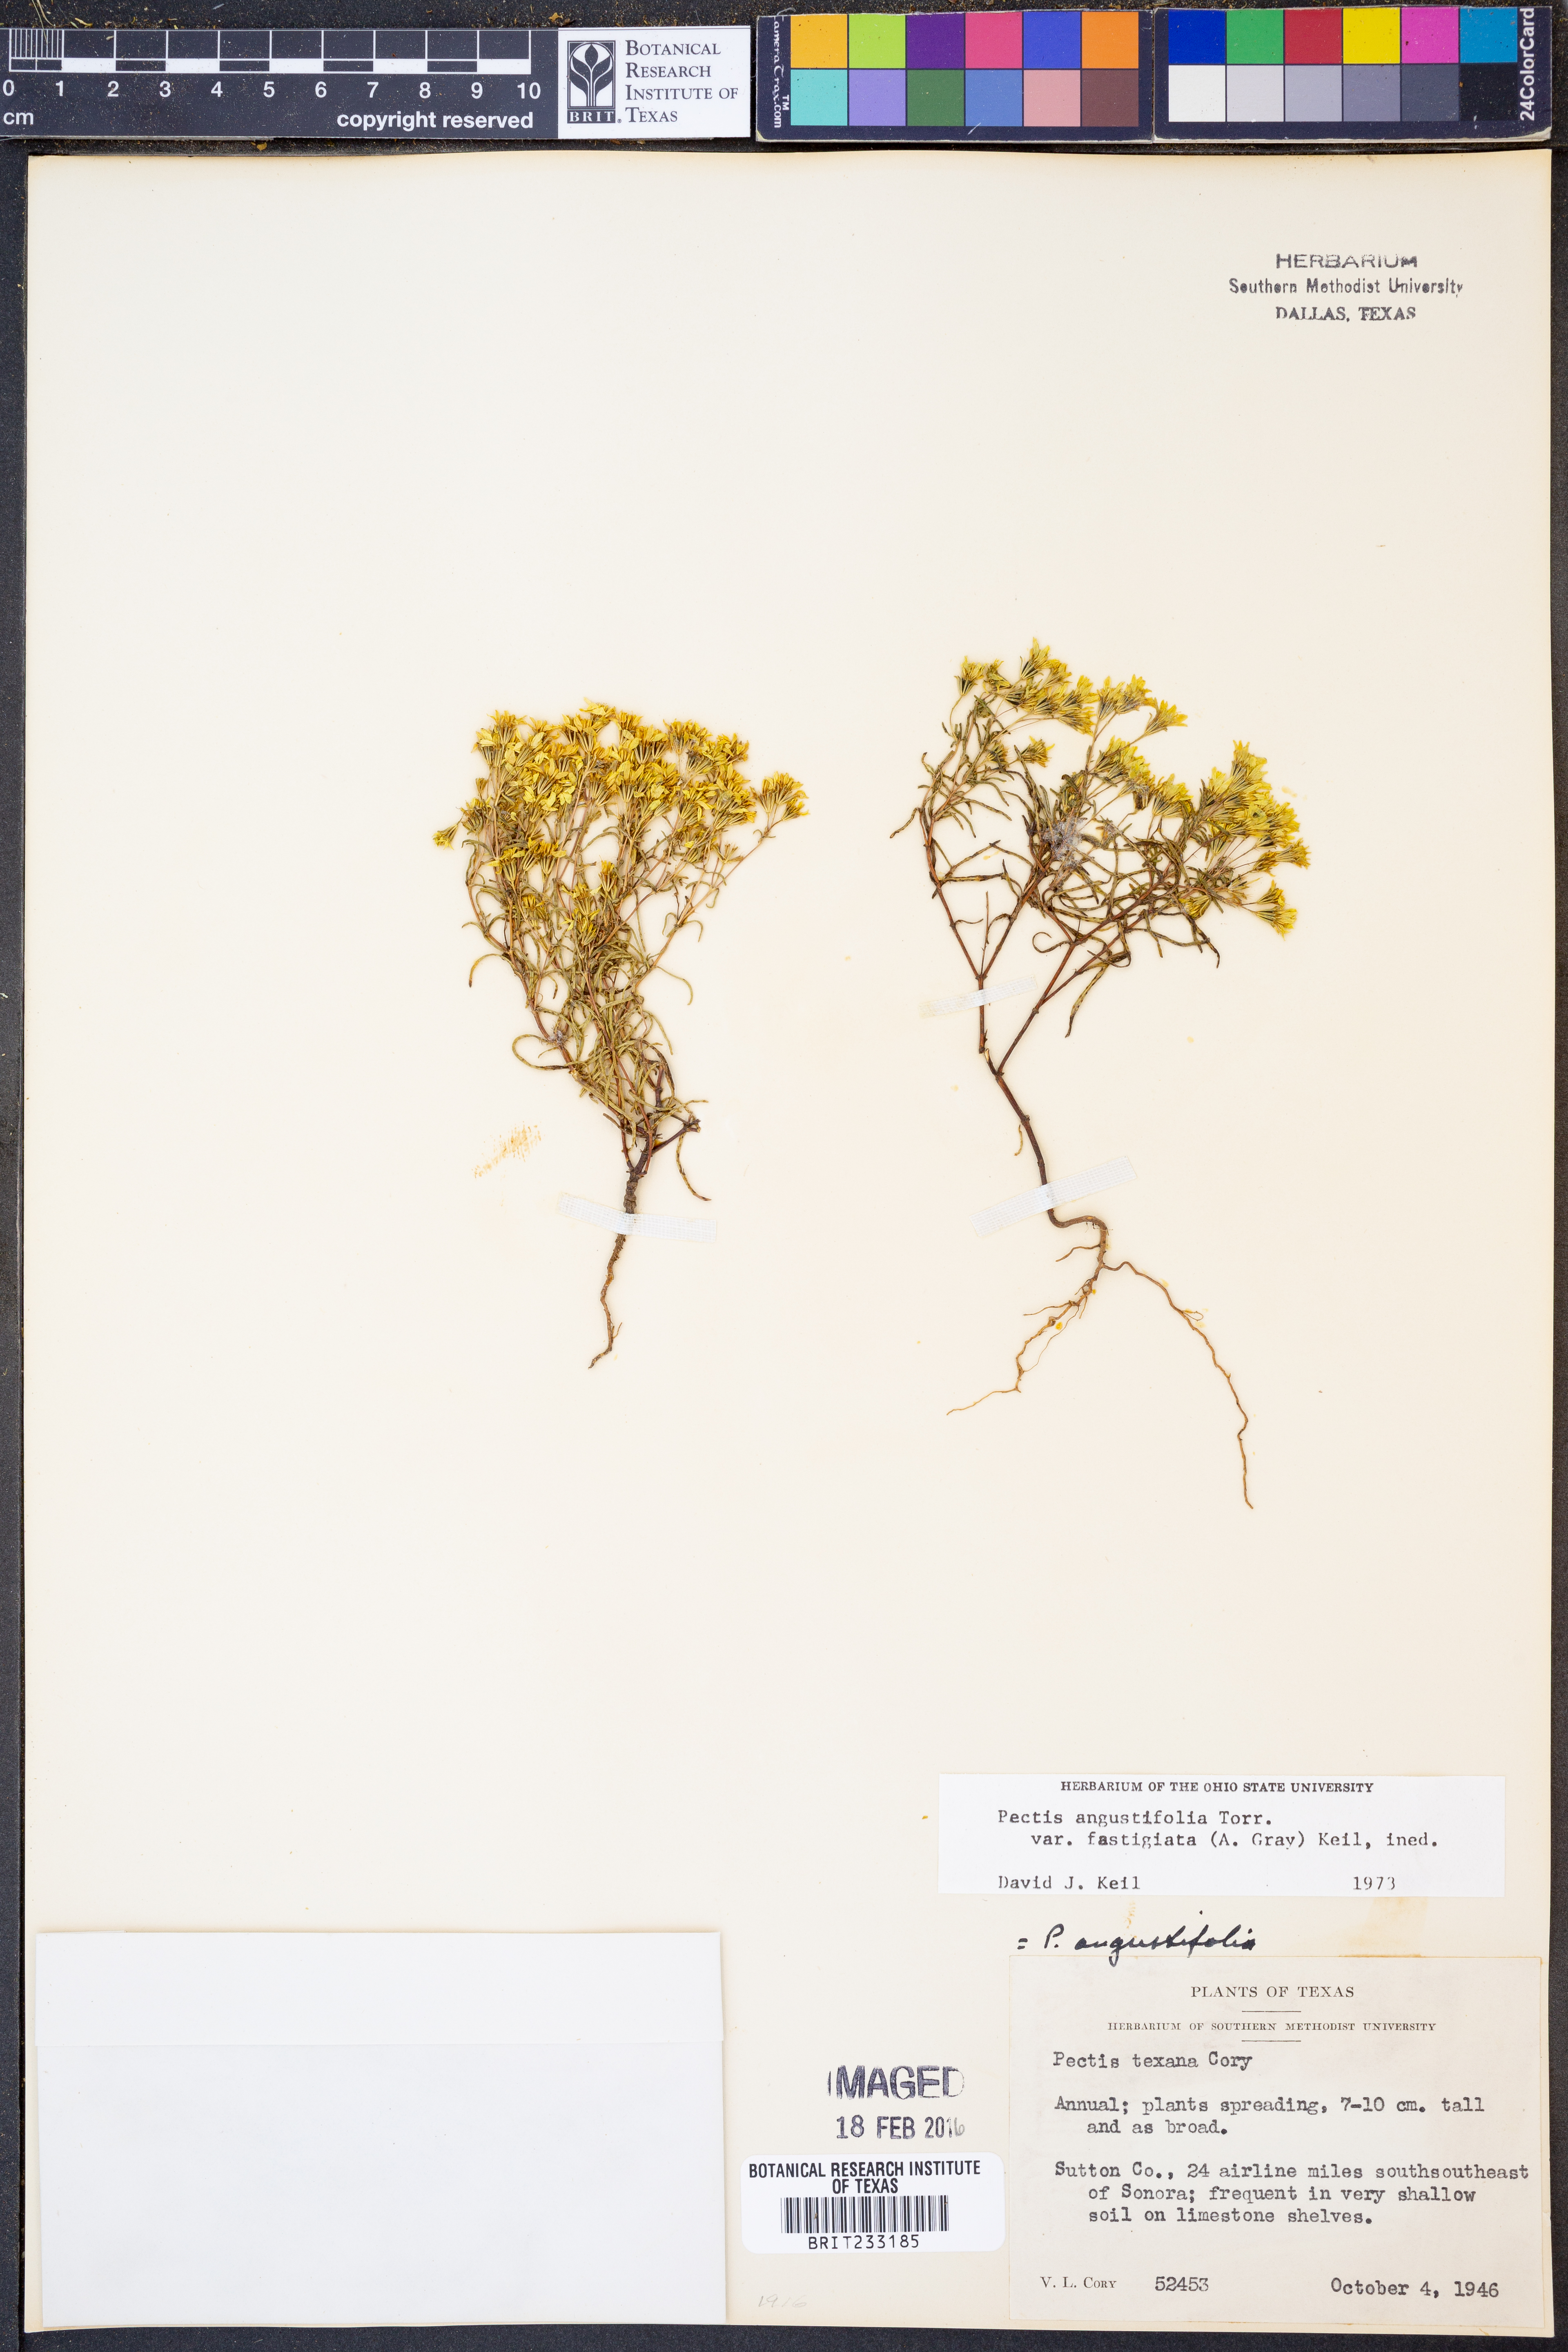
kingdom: Plantae
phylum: Tracheophyta
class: Magnoliopsida
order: Asterales
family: Asteraceae
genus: Pectis
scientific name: Pectis angustifolia
